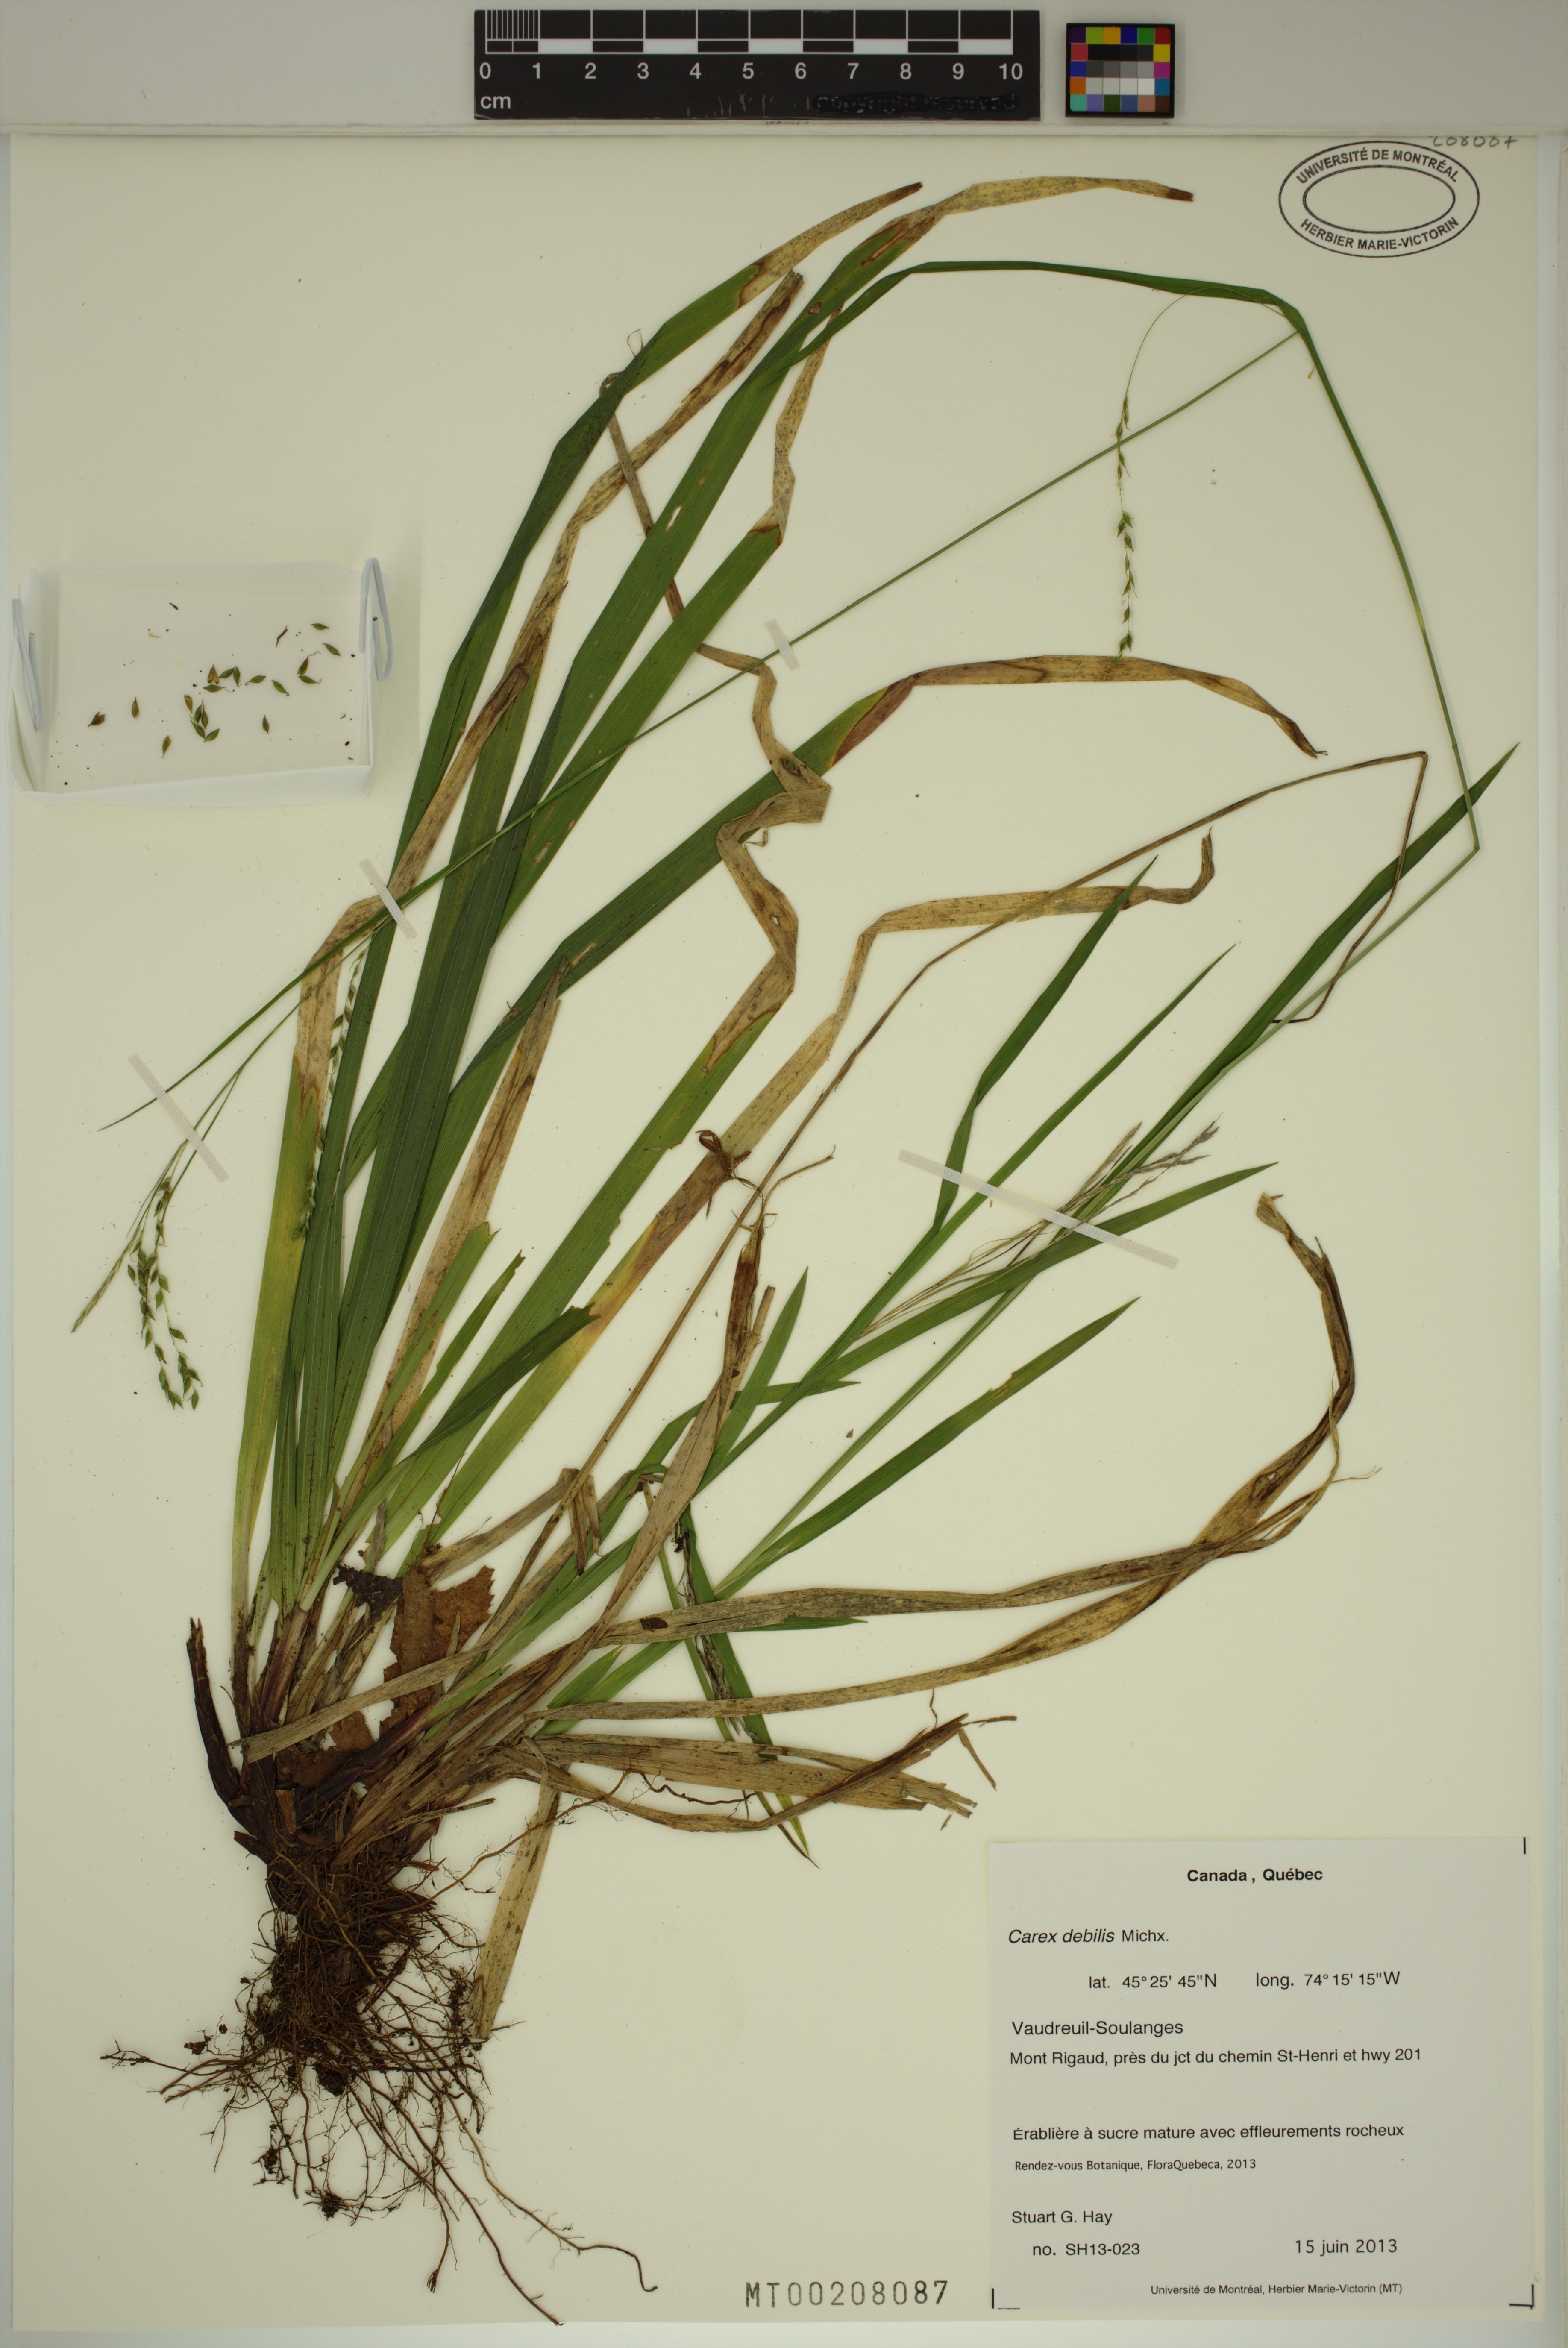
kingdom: Plantae
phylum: Tracheophyta
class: Liliopsida
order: Poales
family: Cyperaceae
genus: Carex
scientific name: Carex debilis
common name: White-edge sedge
